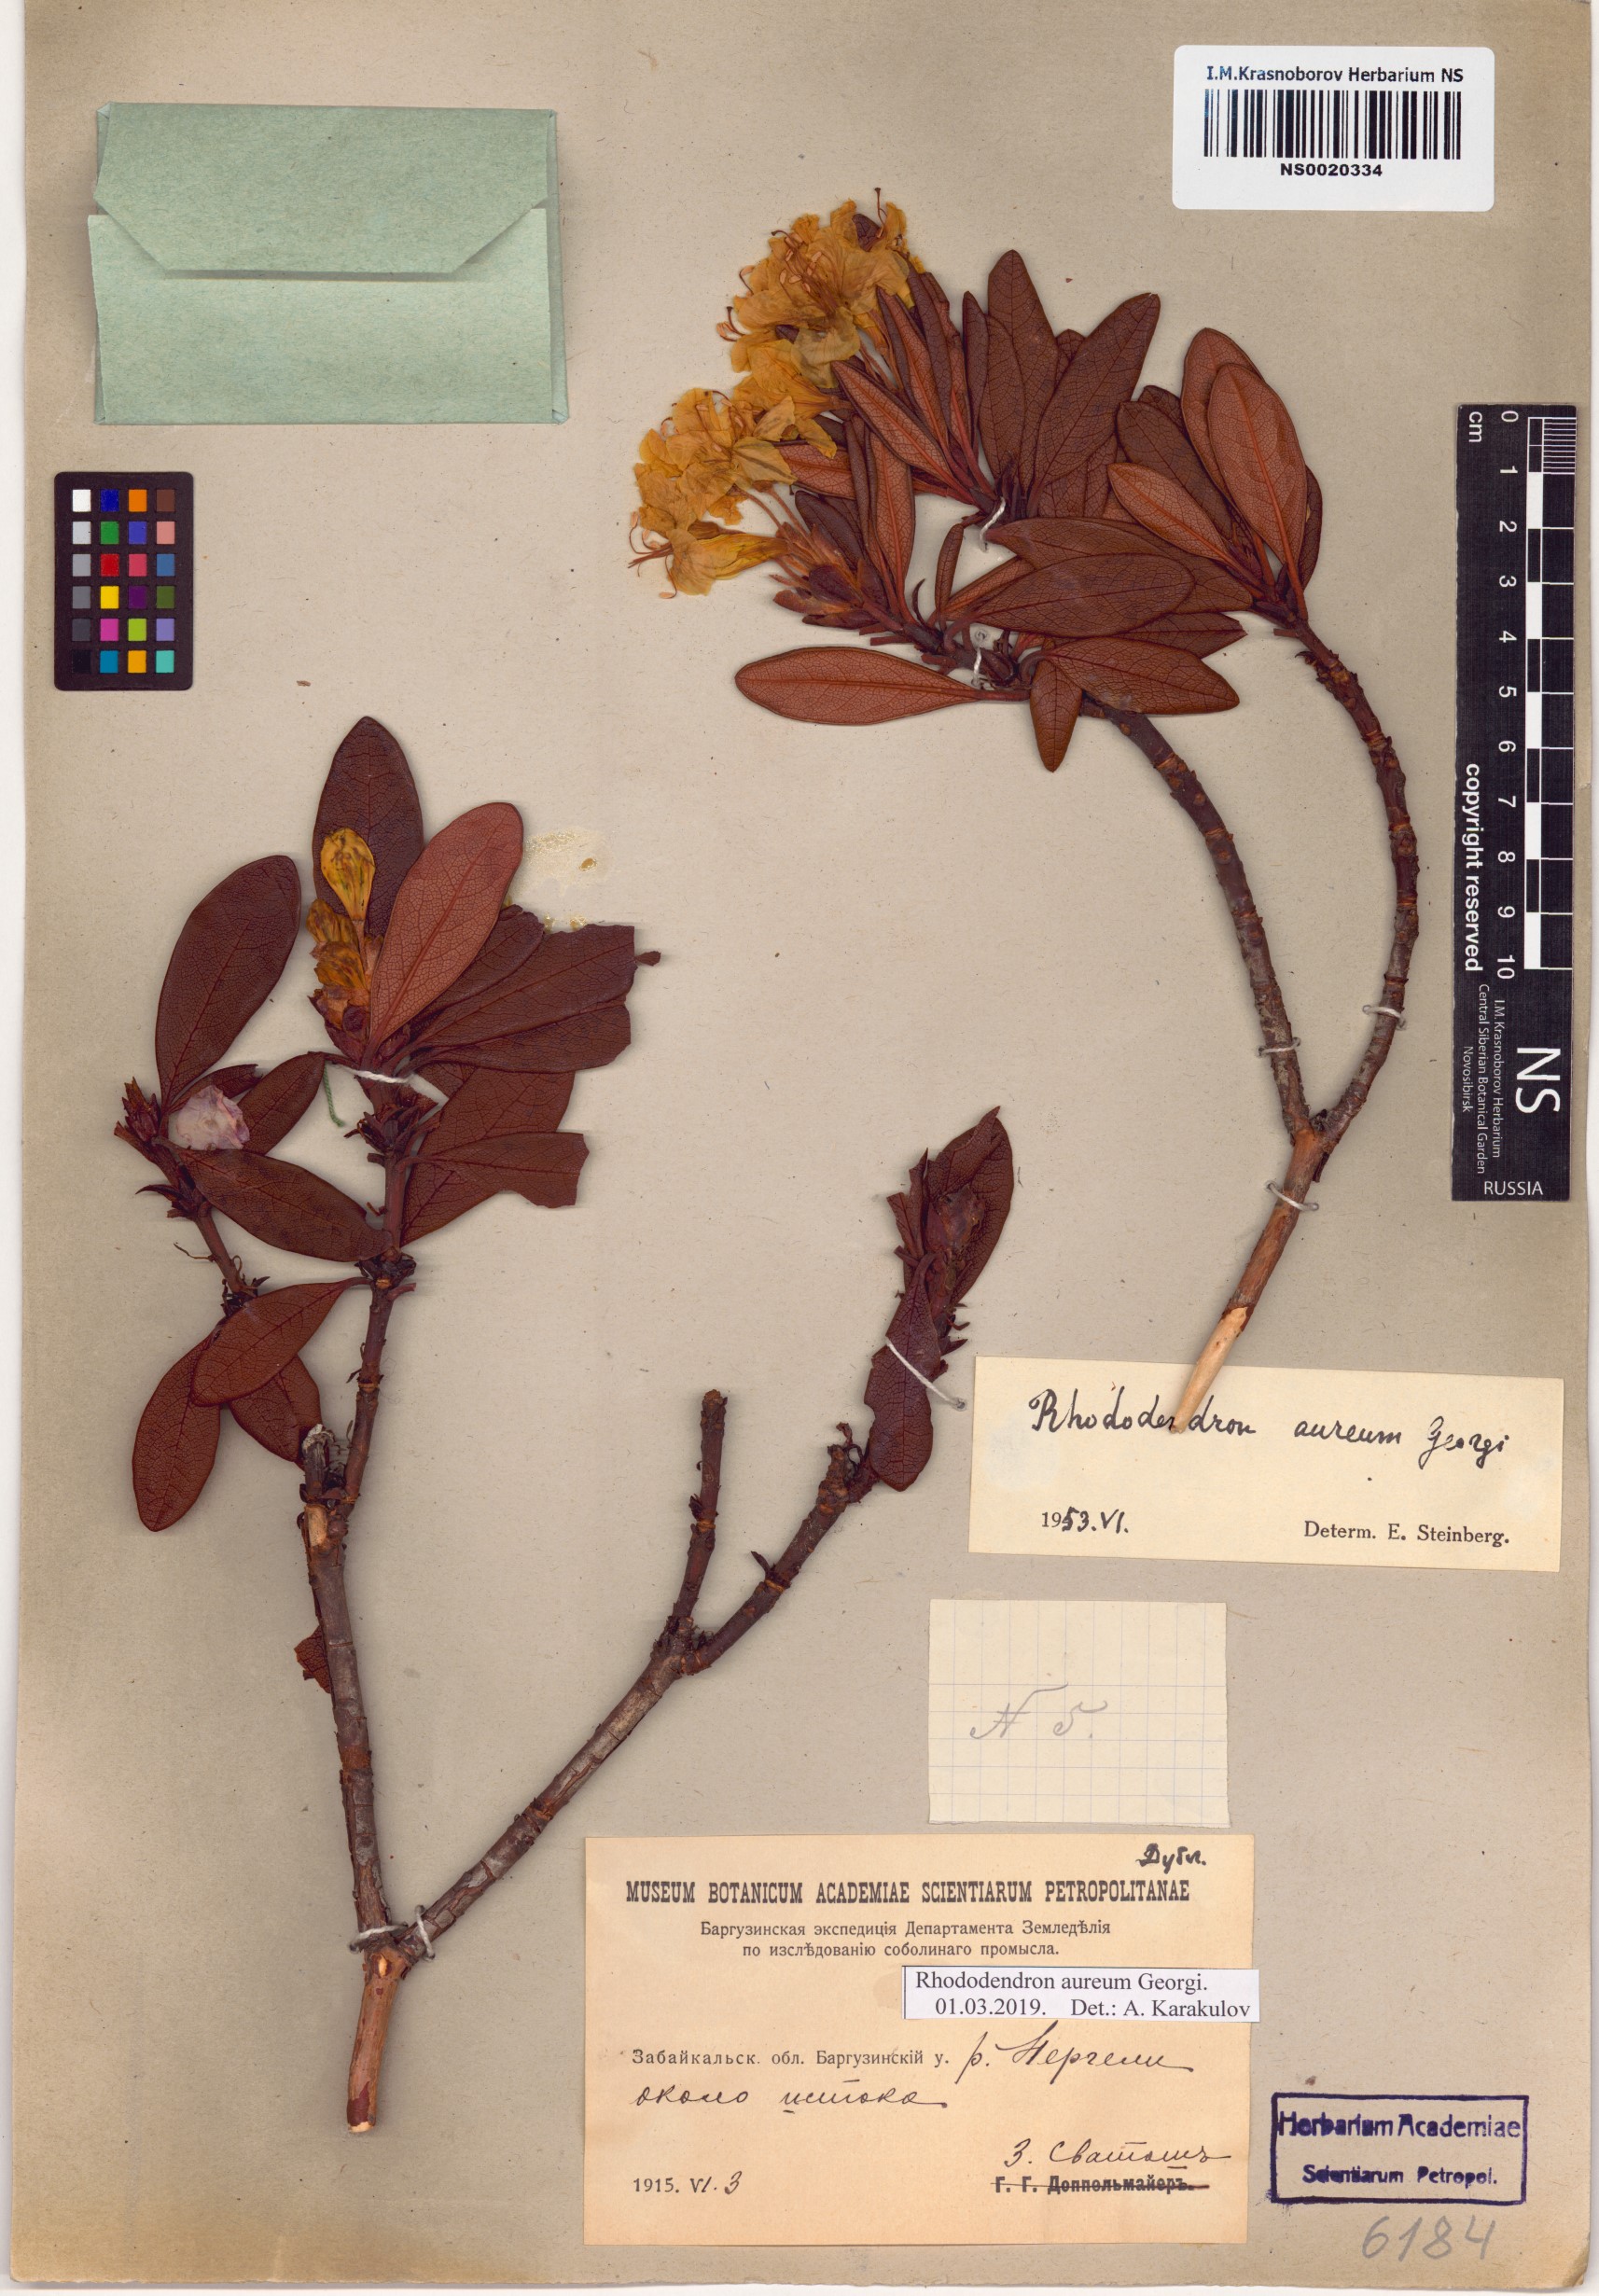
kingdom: Plantae
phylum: Tracheophyta
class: Magnoliopsida
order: Ericales
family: Ericaceae
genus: Rhododendron
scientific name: Rhododendron aureum
